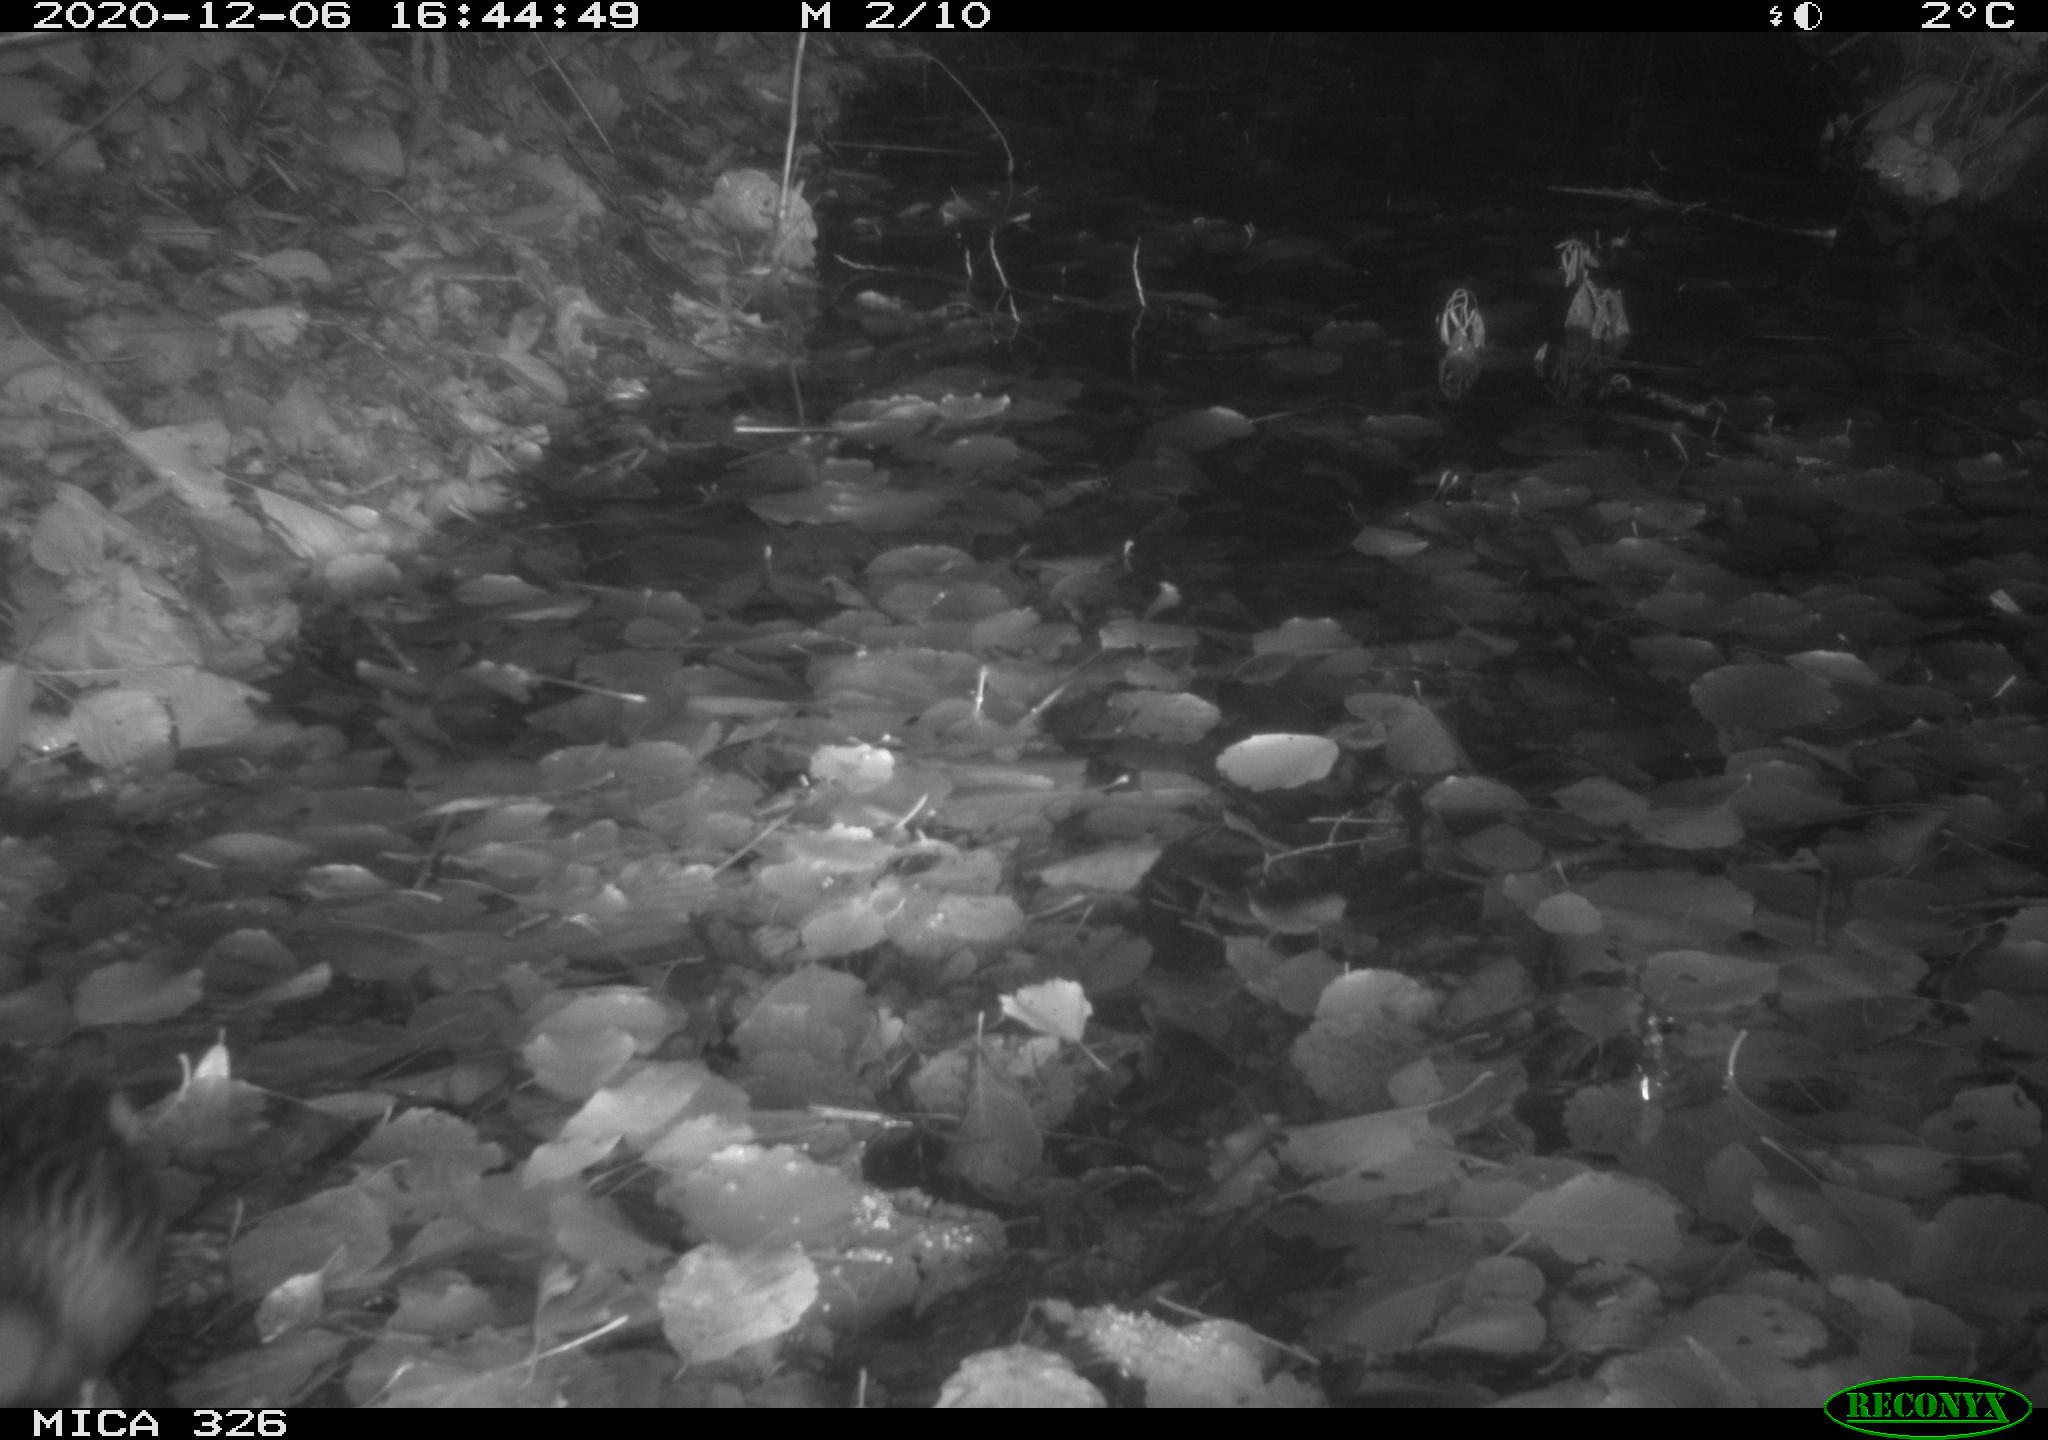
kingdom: Animalia
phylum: Chordata
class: Aves
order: Gruiformes
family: Rallidae
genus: Rallus
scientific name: Rallus aquaticus
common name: Water rail
